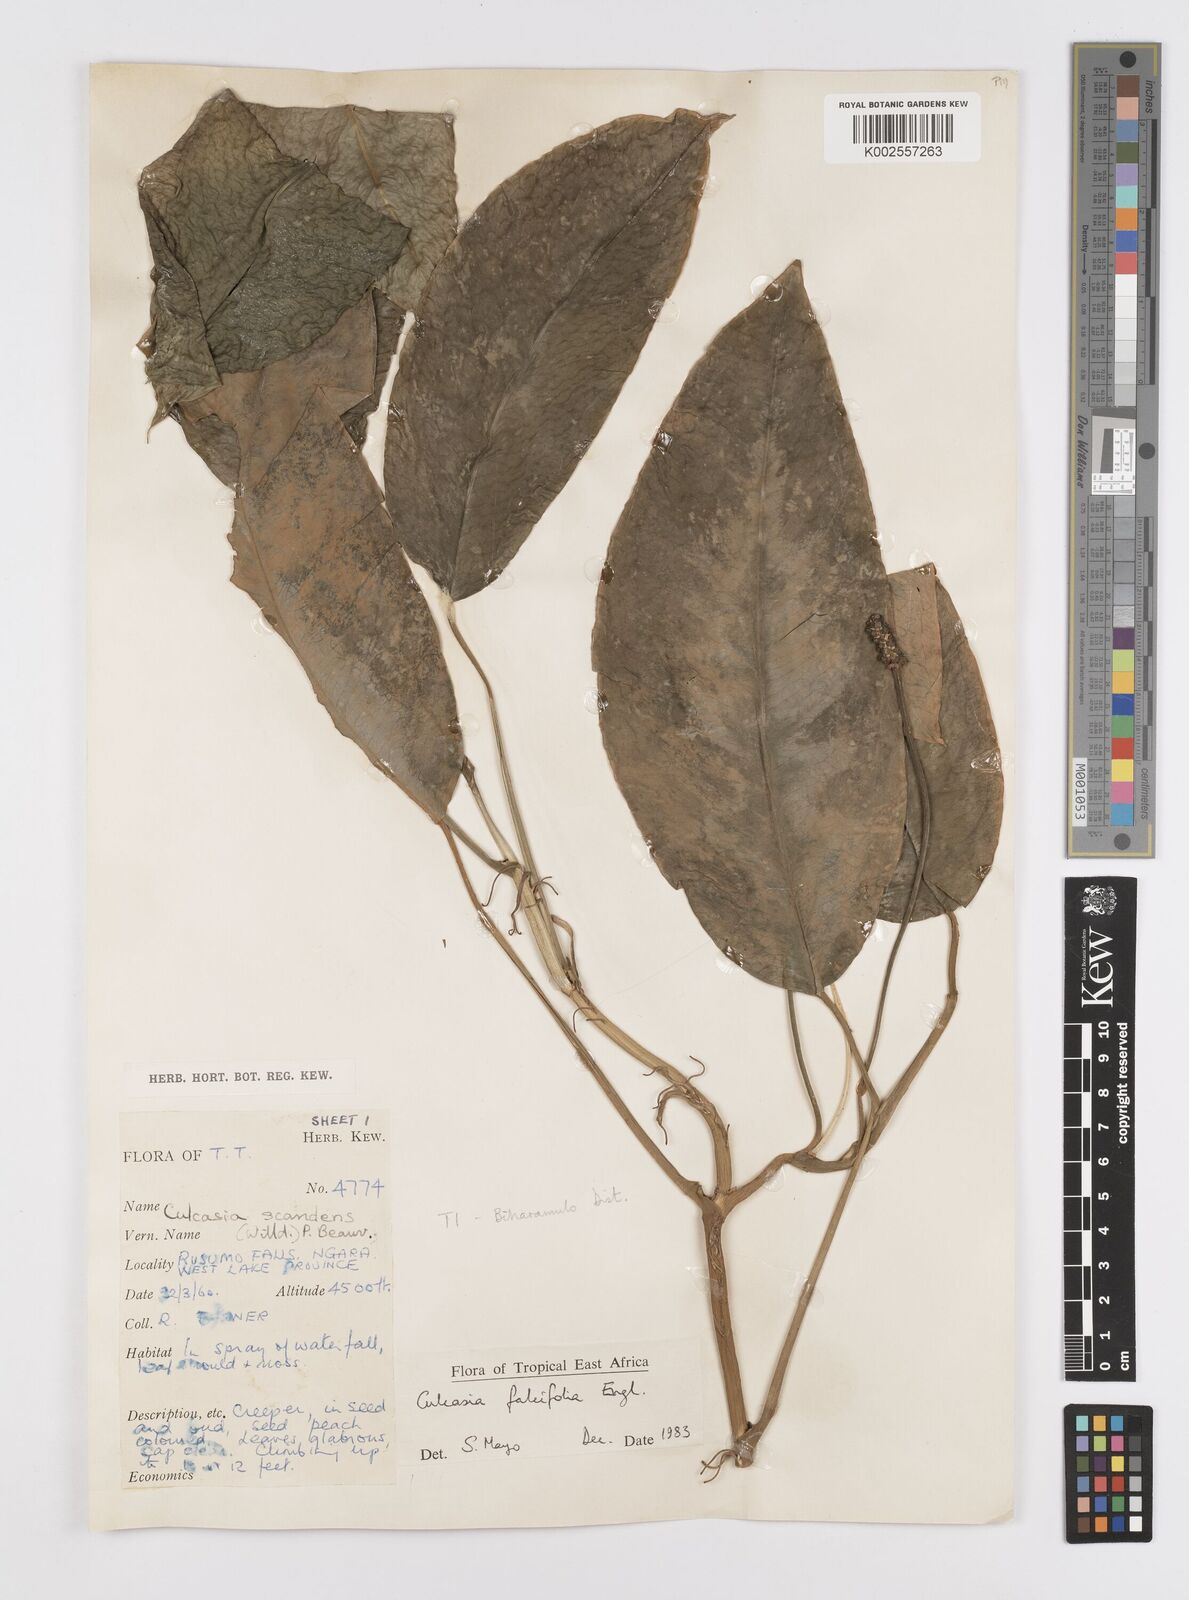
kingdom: Plantae
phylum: Tracheophyta
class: Liliopsida
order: Alismatales
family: Araceae
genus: Culcasia
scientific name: Culcasia falcifolia
